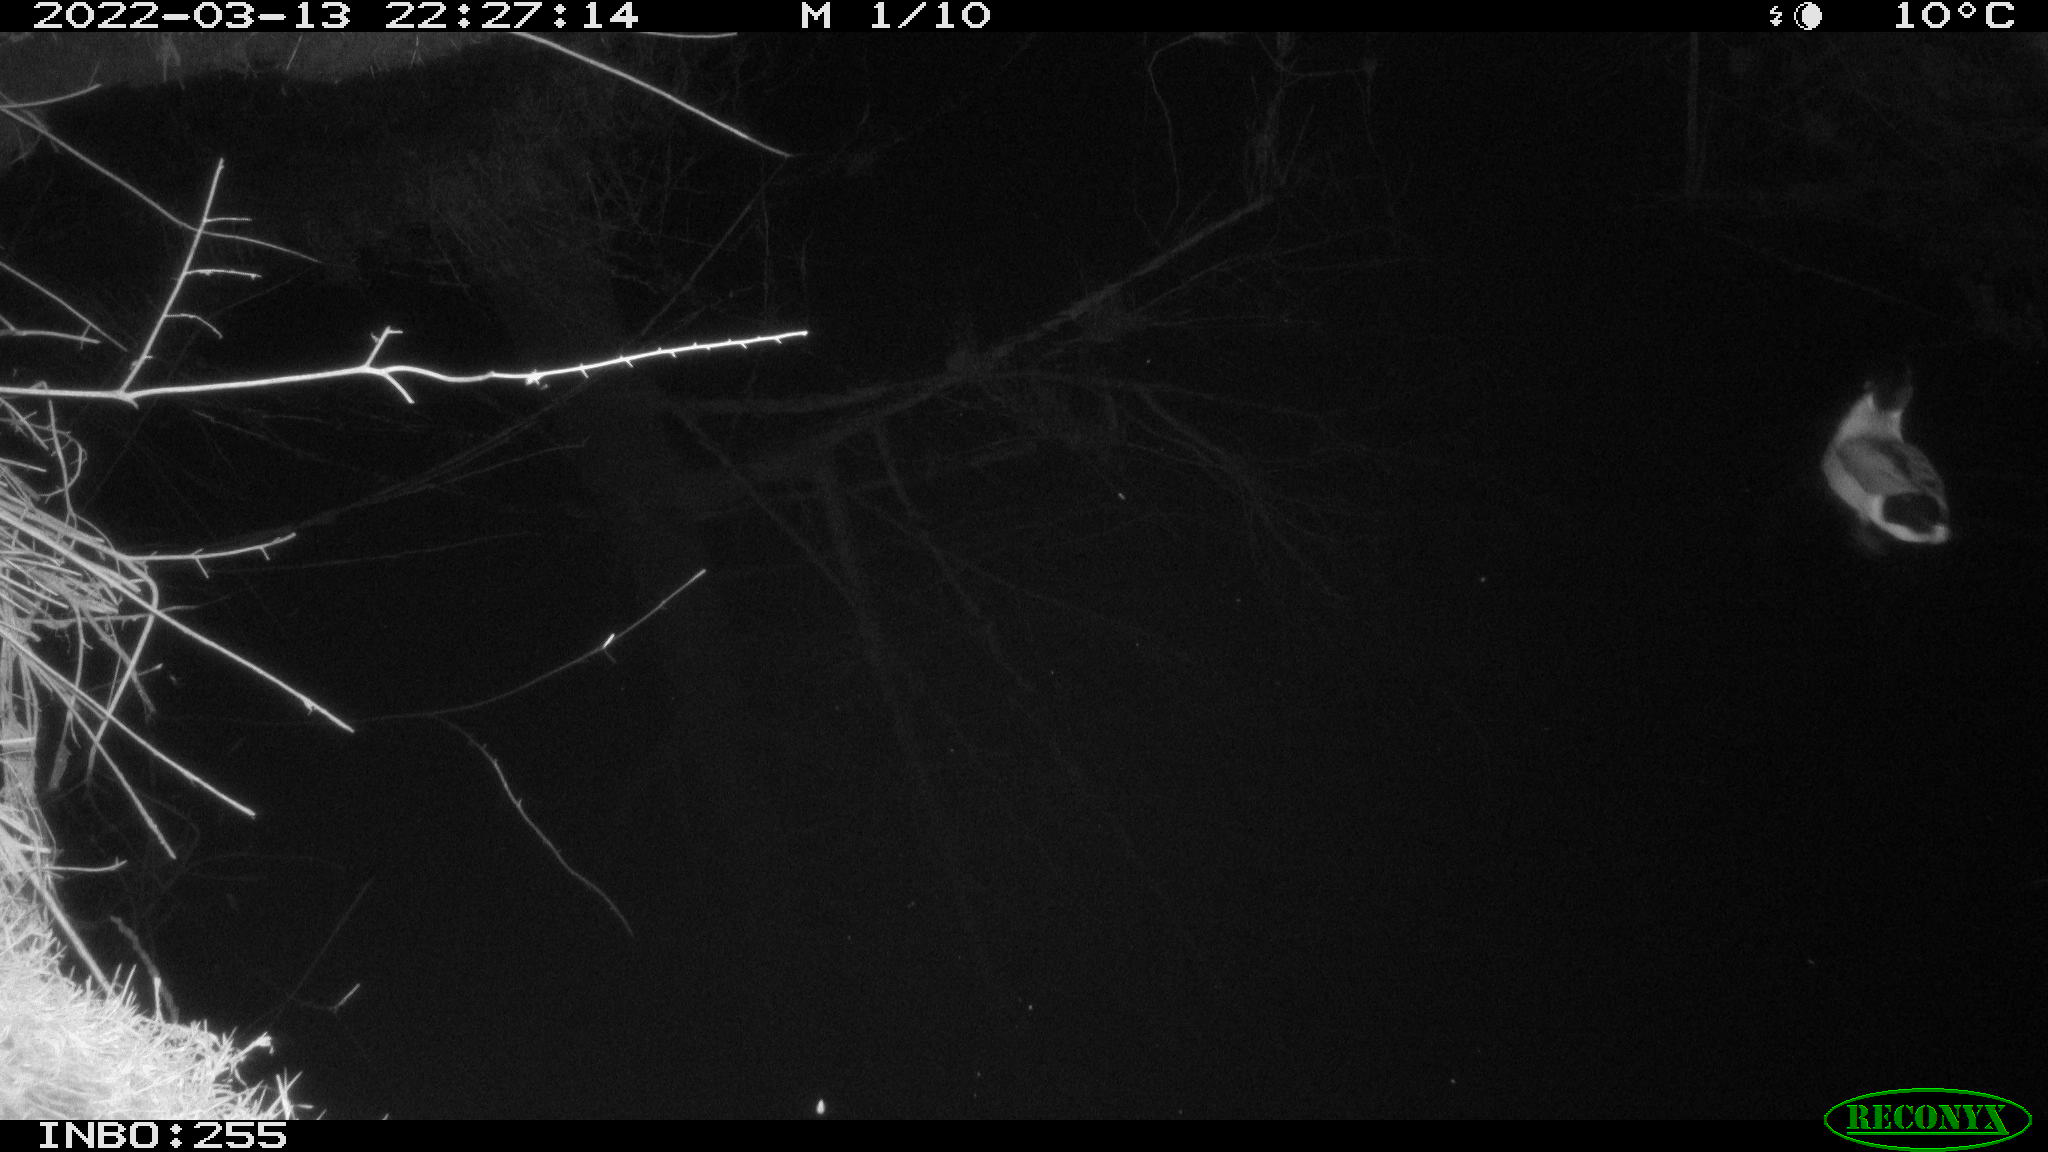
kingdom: Animalia
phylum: Chordata
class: Aves
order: Anseriformes
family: Anatidae
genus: Anas
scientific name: Anas platyrhynchos
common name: Mallard
